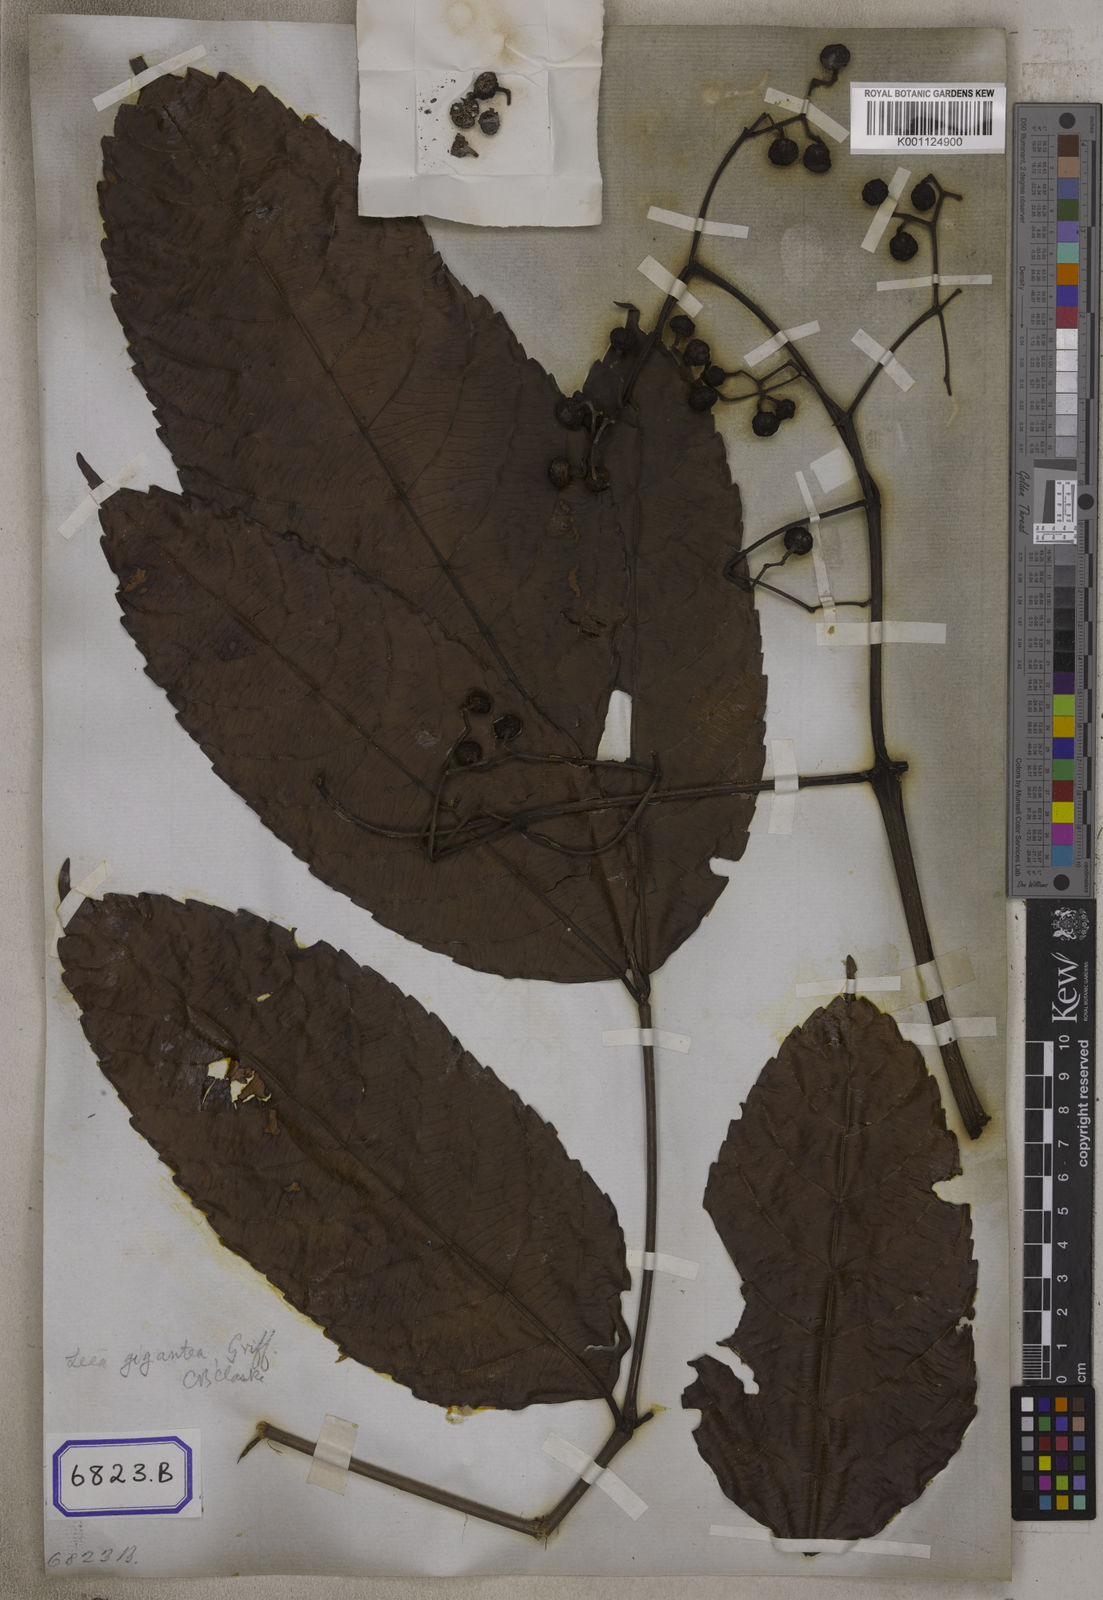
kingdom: Plantae
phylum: Tracheophyta
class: Magnoliopsida
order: Vitales
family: Vitaceae
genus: Leea
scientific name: Leea indica
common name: Bandicoot-berry
